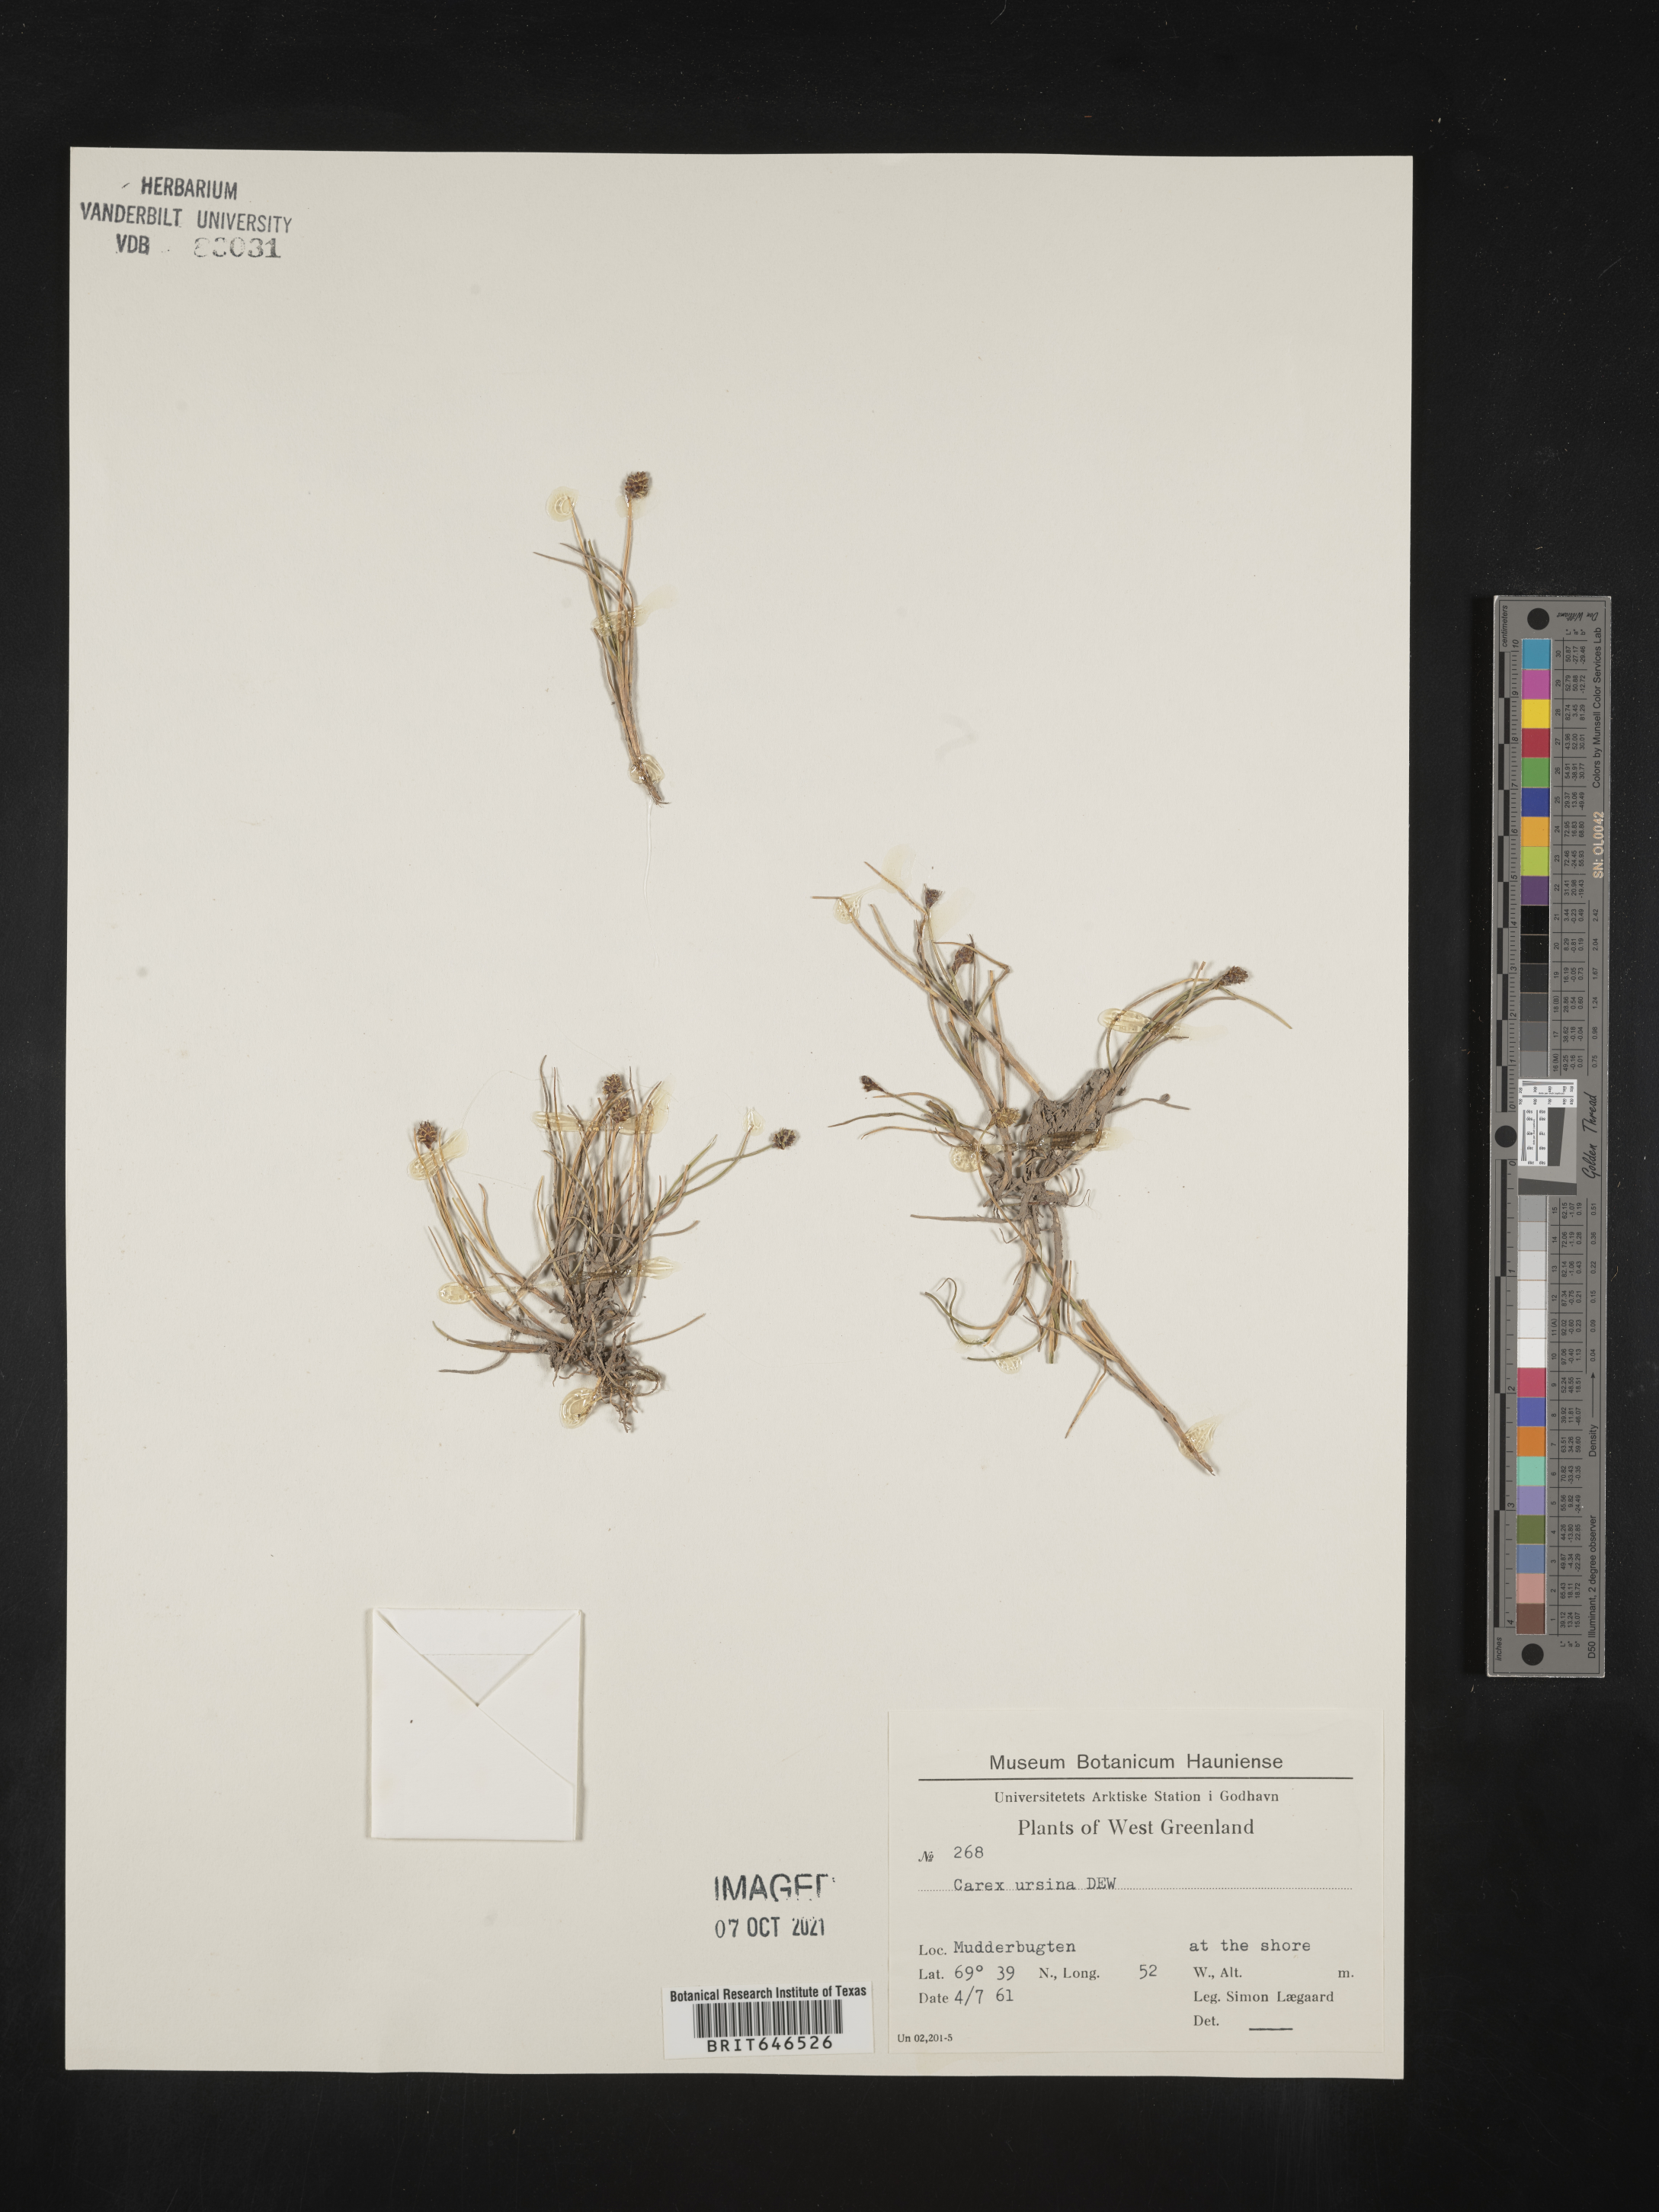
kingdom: Plantae
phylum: Tracheophyta
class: Liliopsida
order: Poales
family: Cyperaceae
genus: Carex
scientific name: Carex ursina
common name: Bear sedge
